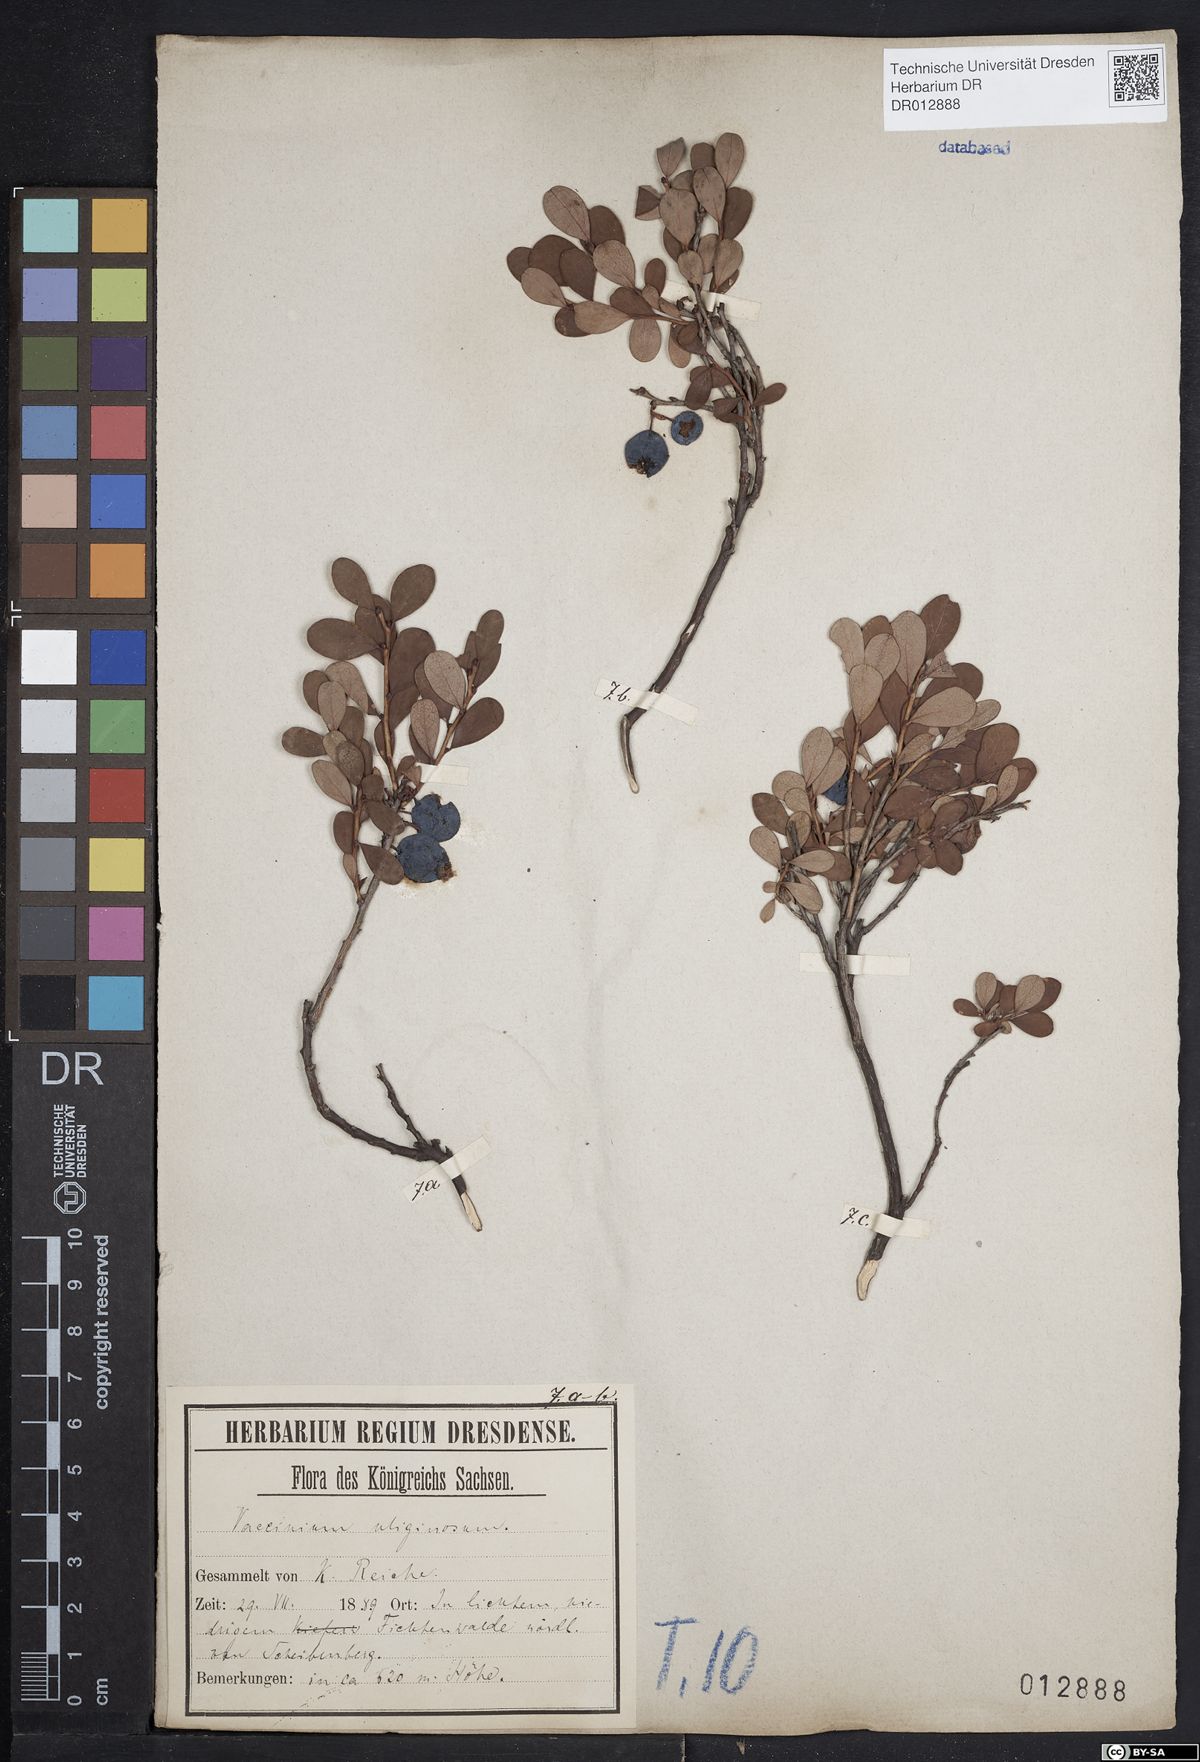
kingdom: Plantae
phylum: Tracheophyta
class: Magnoliopsida
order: Ericales
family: Ericaceae
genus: Vaccinium
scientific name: Vaccinium uliginosum
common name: Bog bilberry
